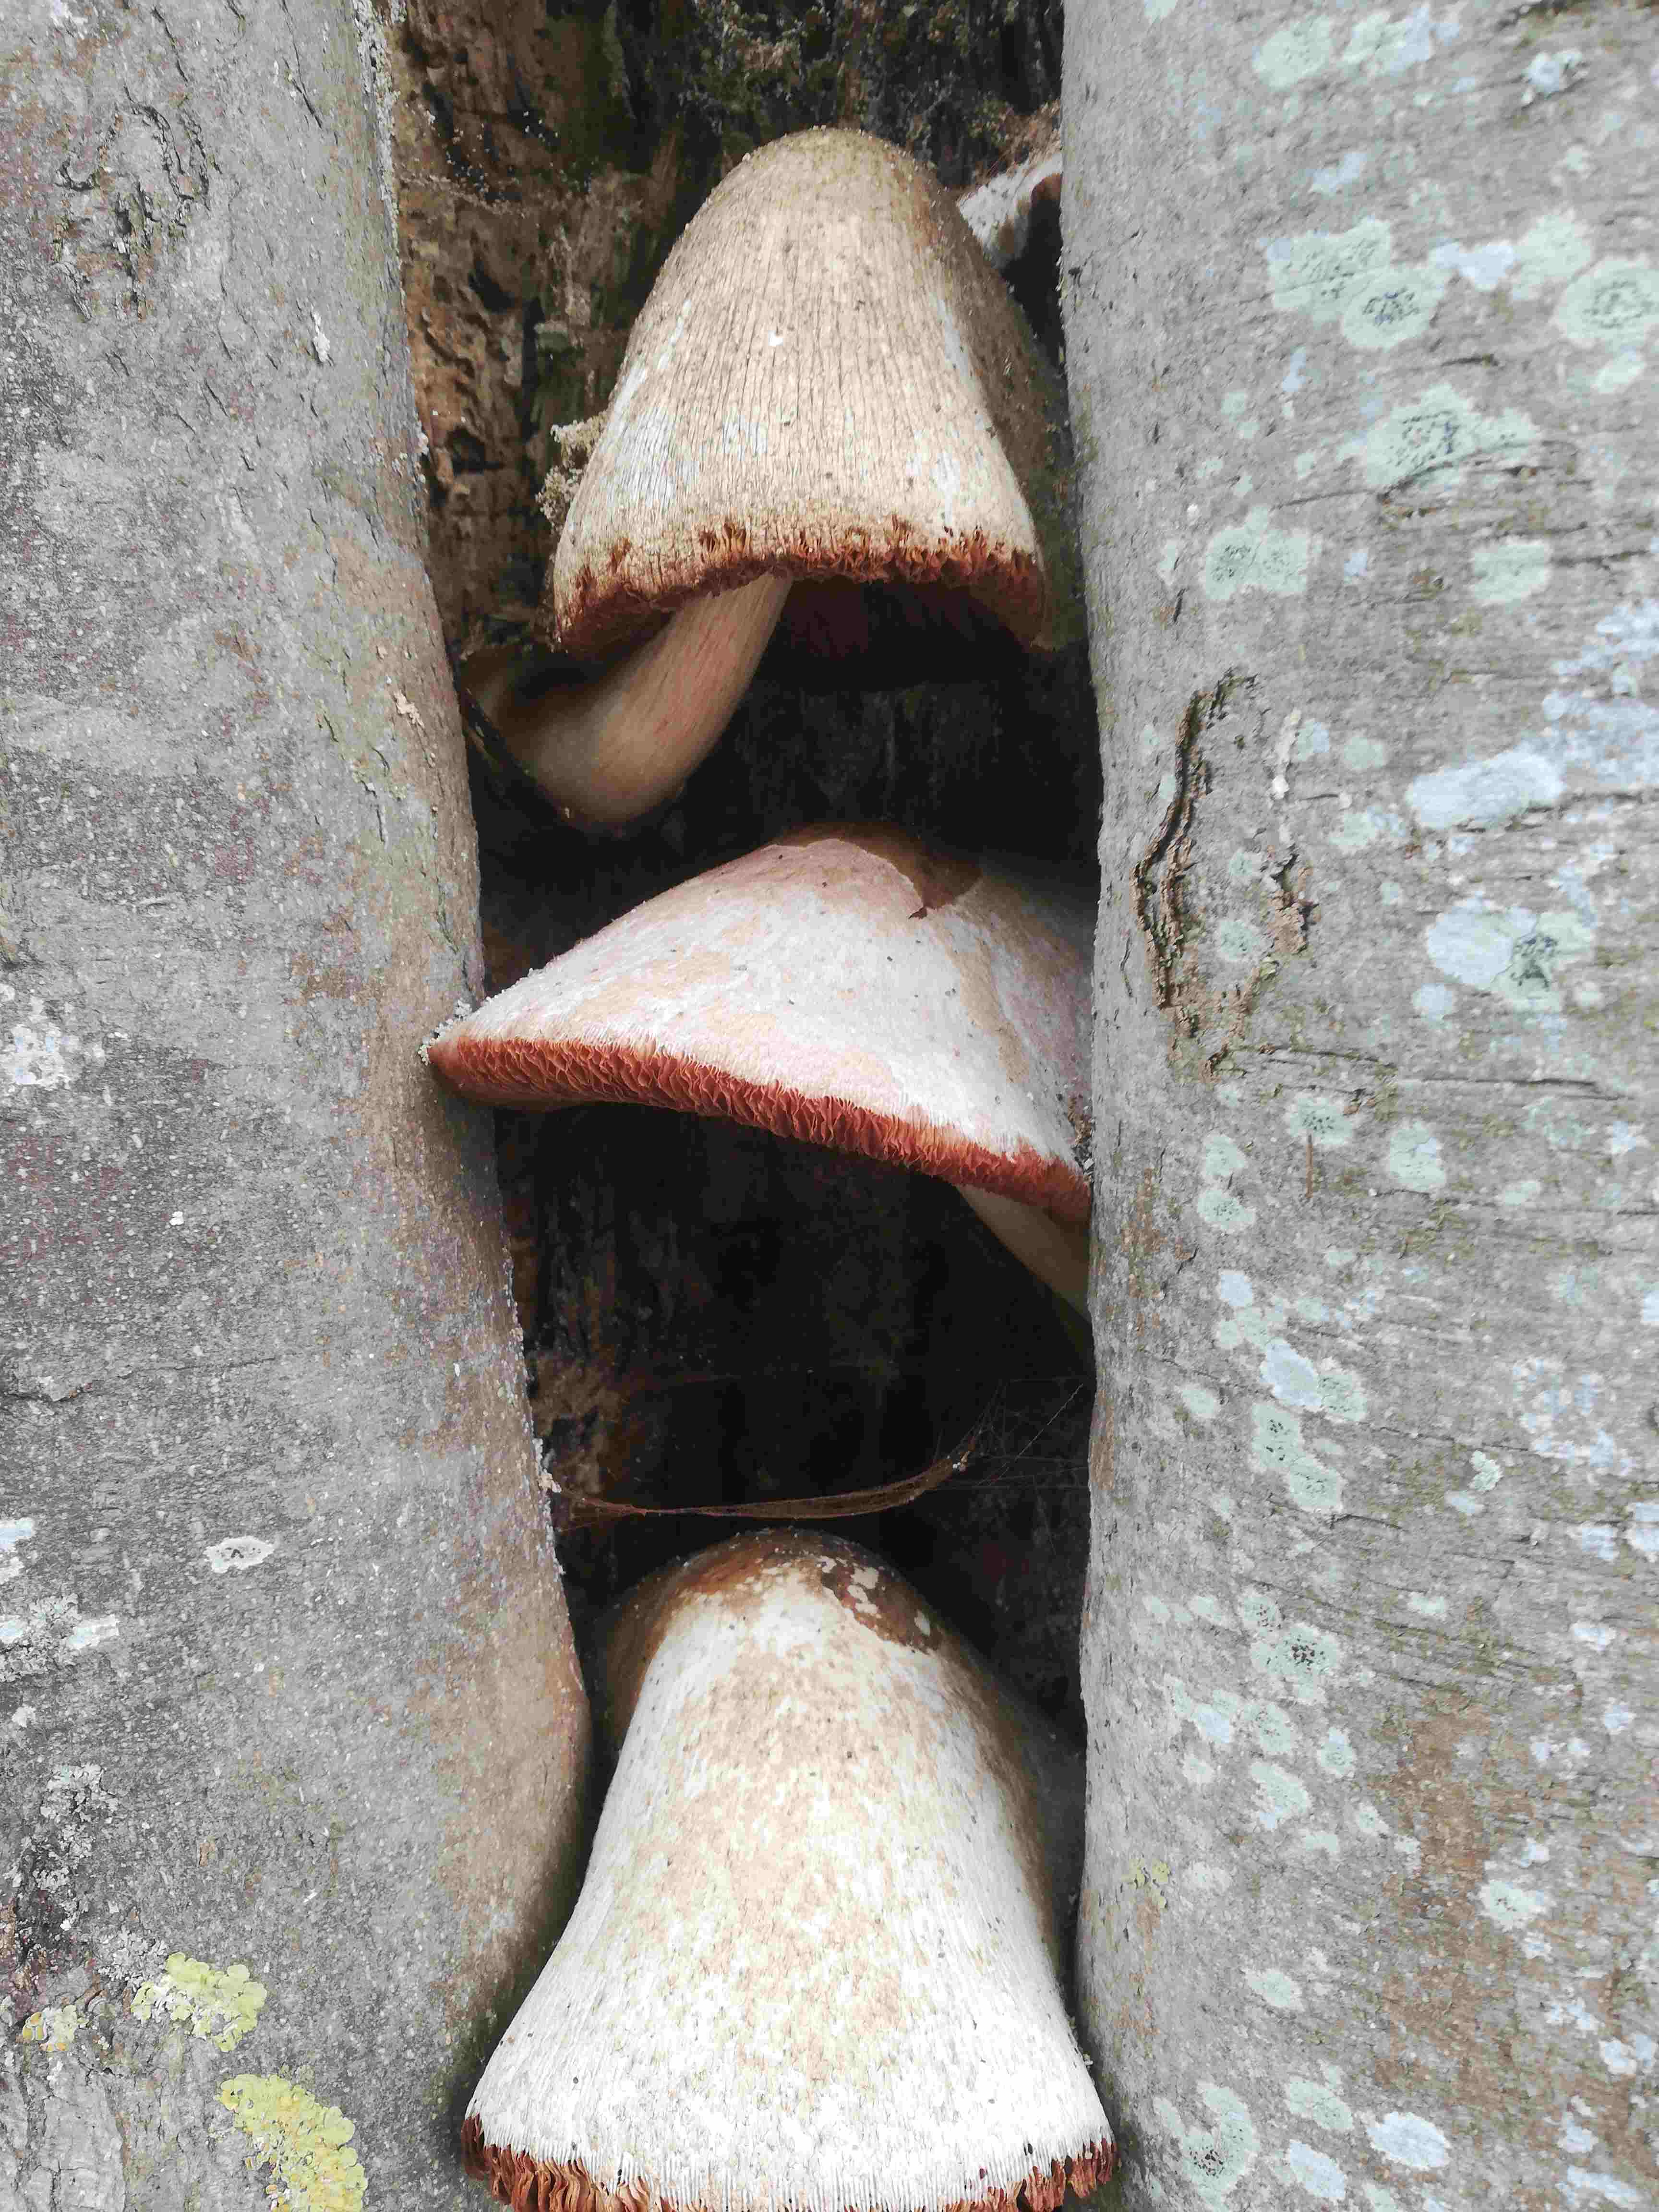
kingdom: Fungi
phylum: Basidiomycota
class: Agaricomycetes
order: Agaricales
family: Pluteaceae
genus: Volvariella
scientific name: Volvariella bombycina
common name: silkehåret posesvamp
